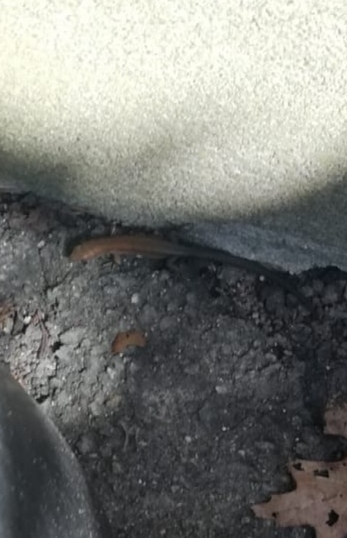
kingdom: Animalia
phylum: Chordata
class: Squamata
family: Lacertidae
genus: Zootoca
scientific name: Zootoca vivipara
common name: Skovfirben
